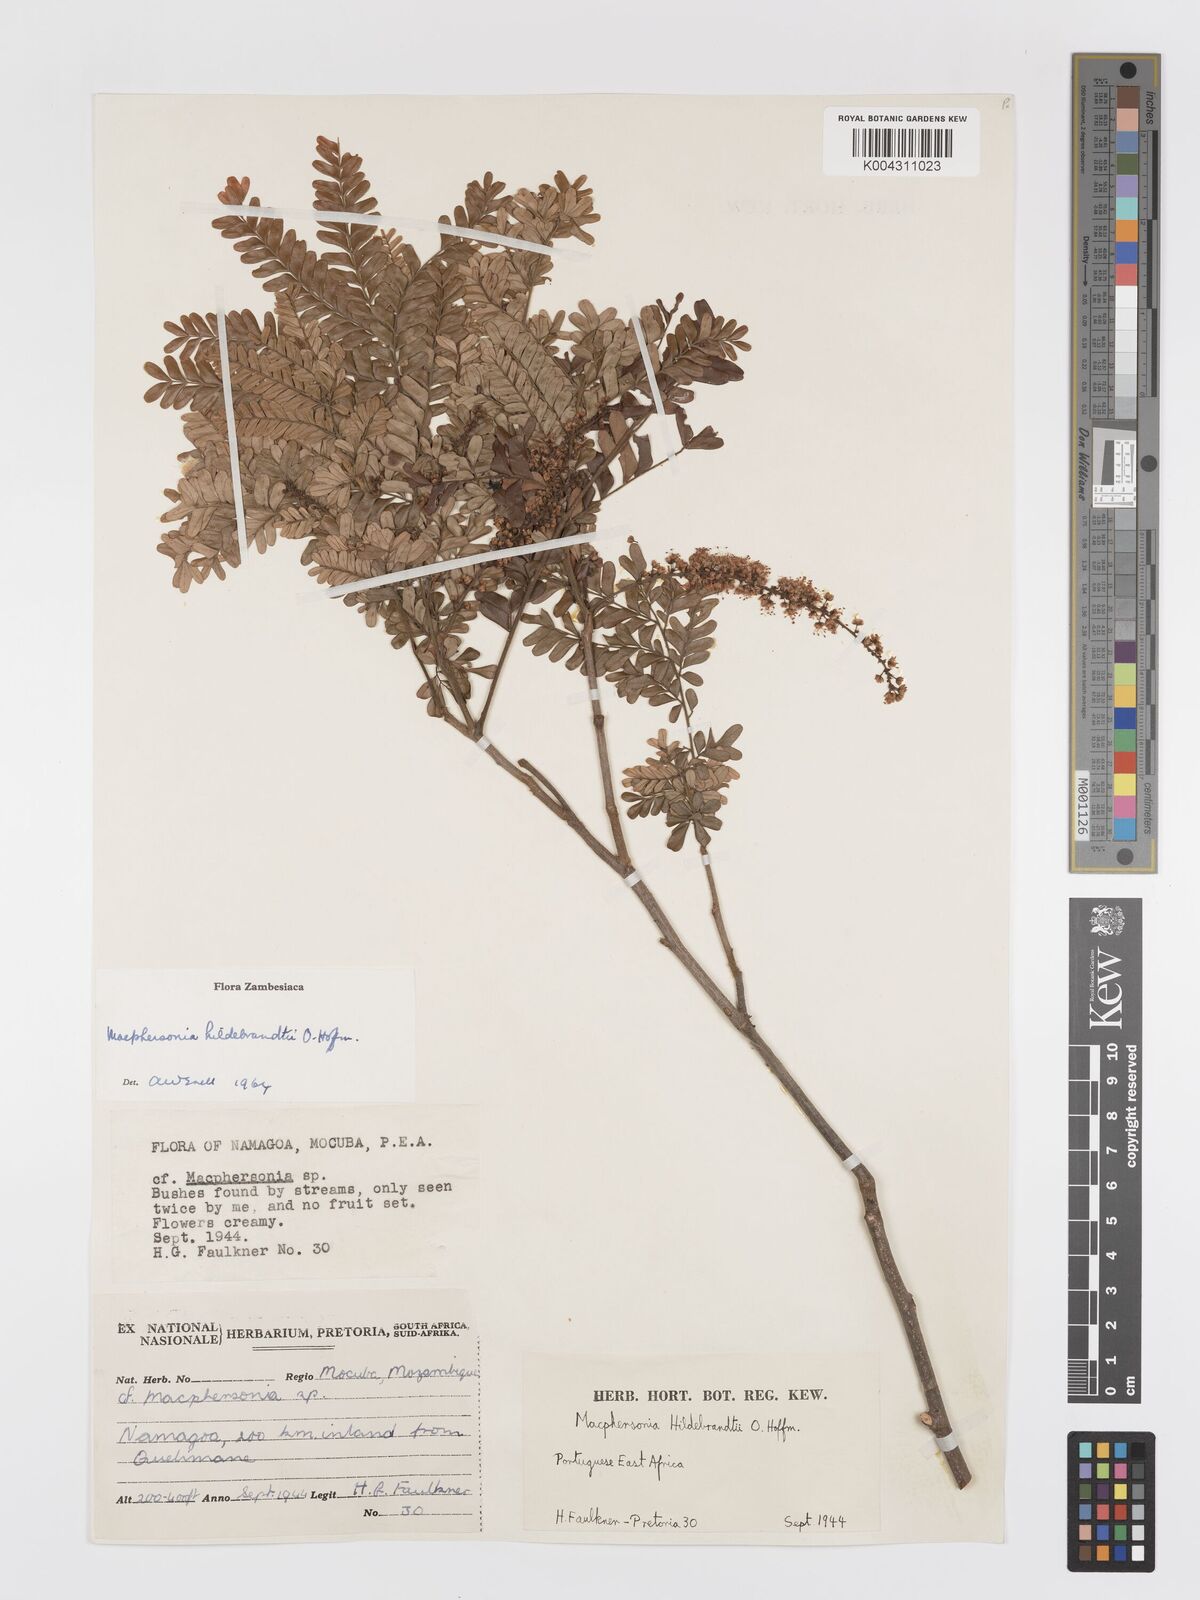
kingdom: Plantae
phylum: Tracheophyta
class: Magnoliopsida
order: Sapindales
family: Sapindaceae
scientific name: Sapindaceae
